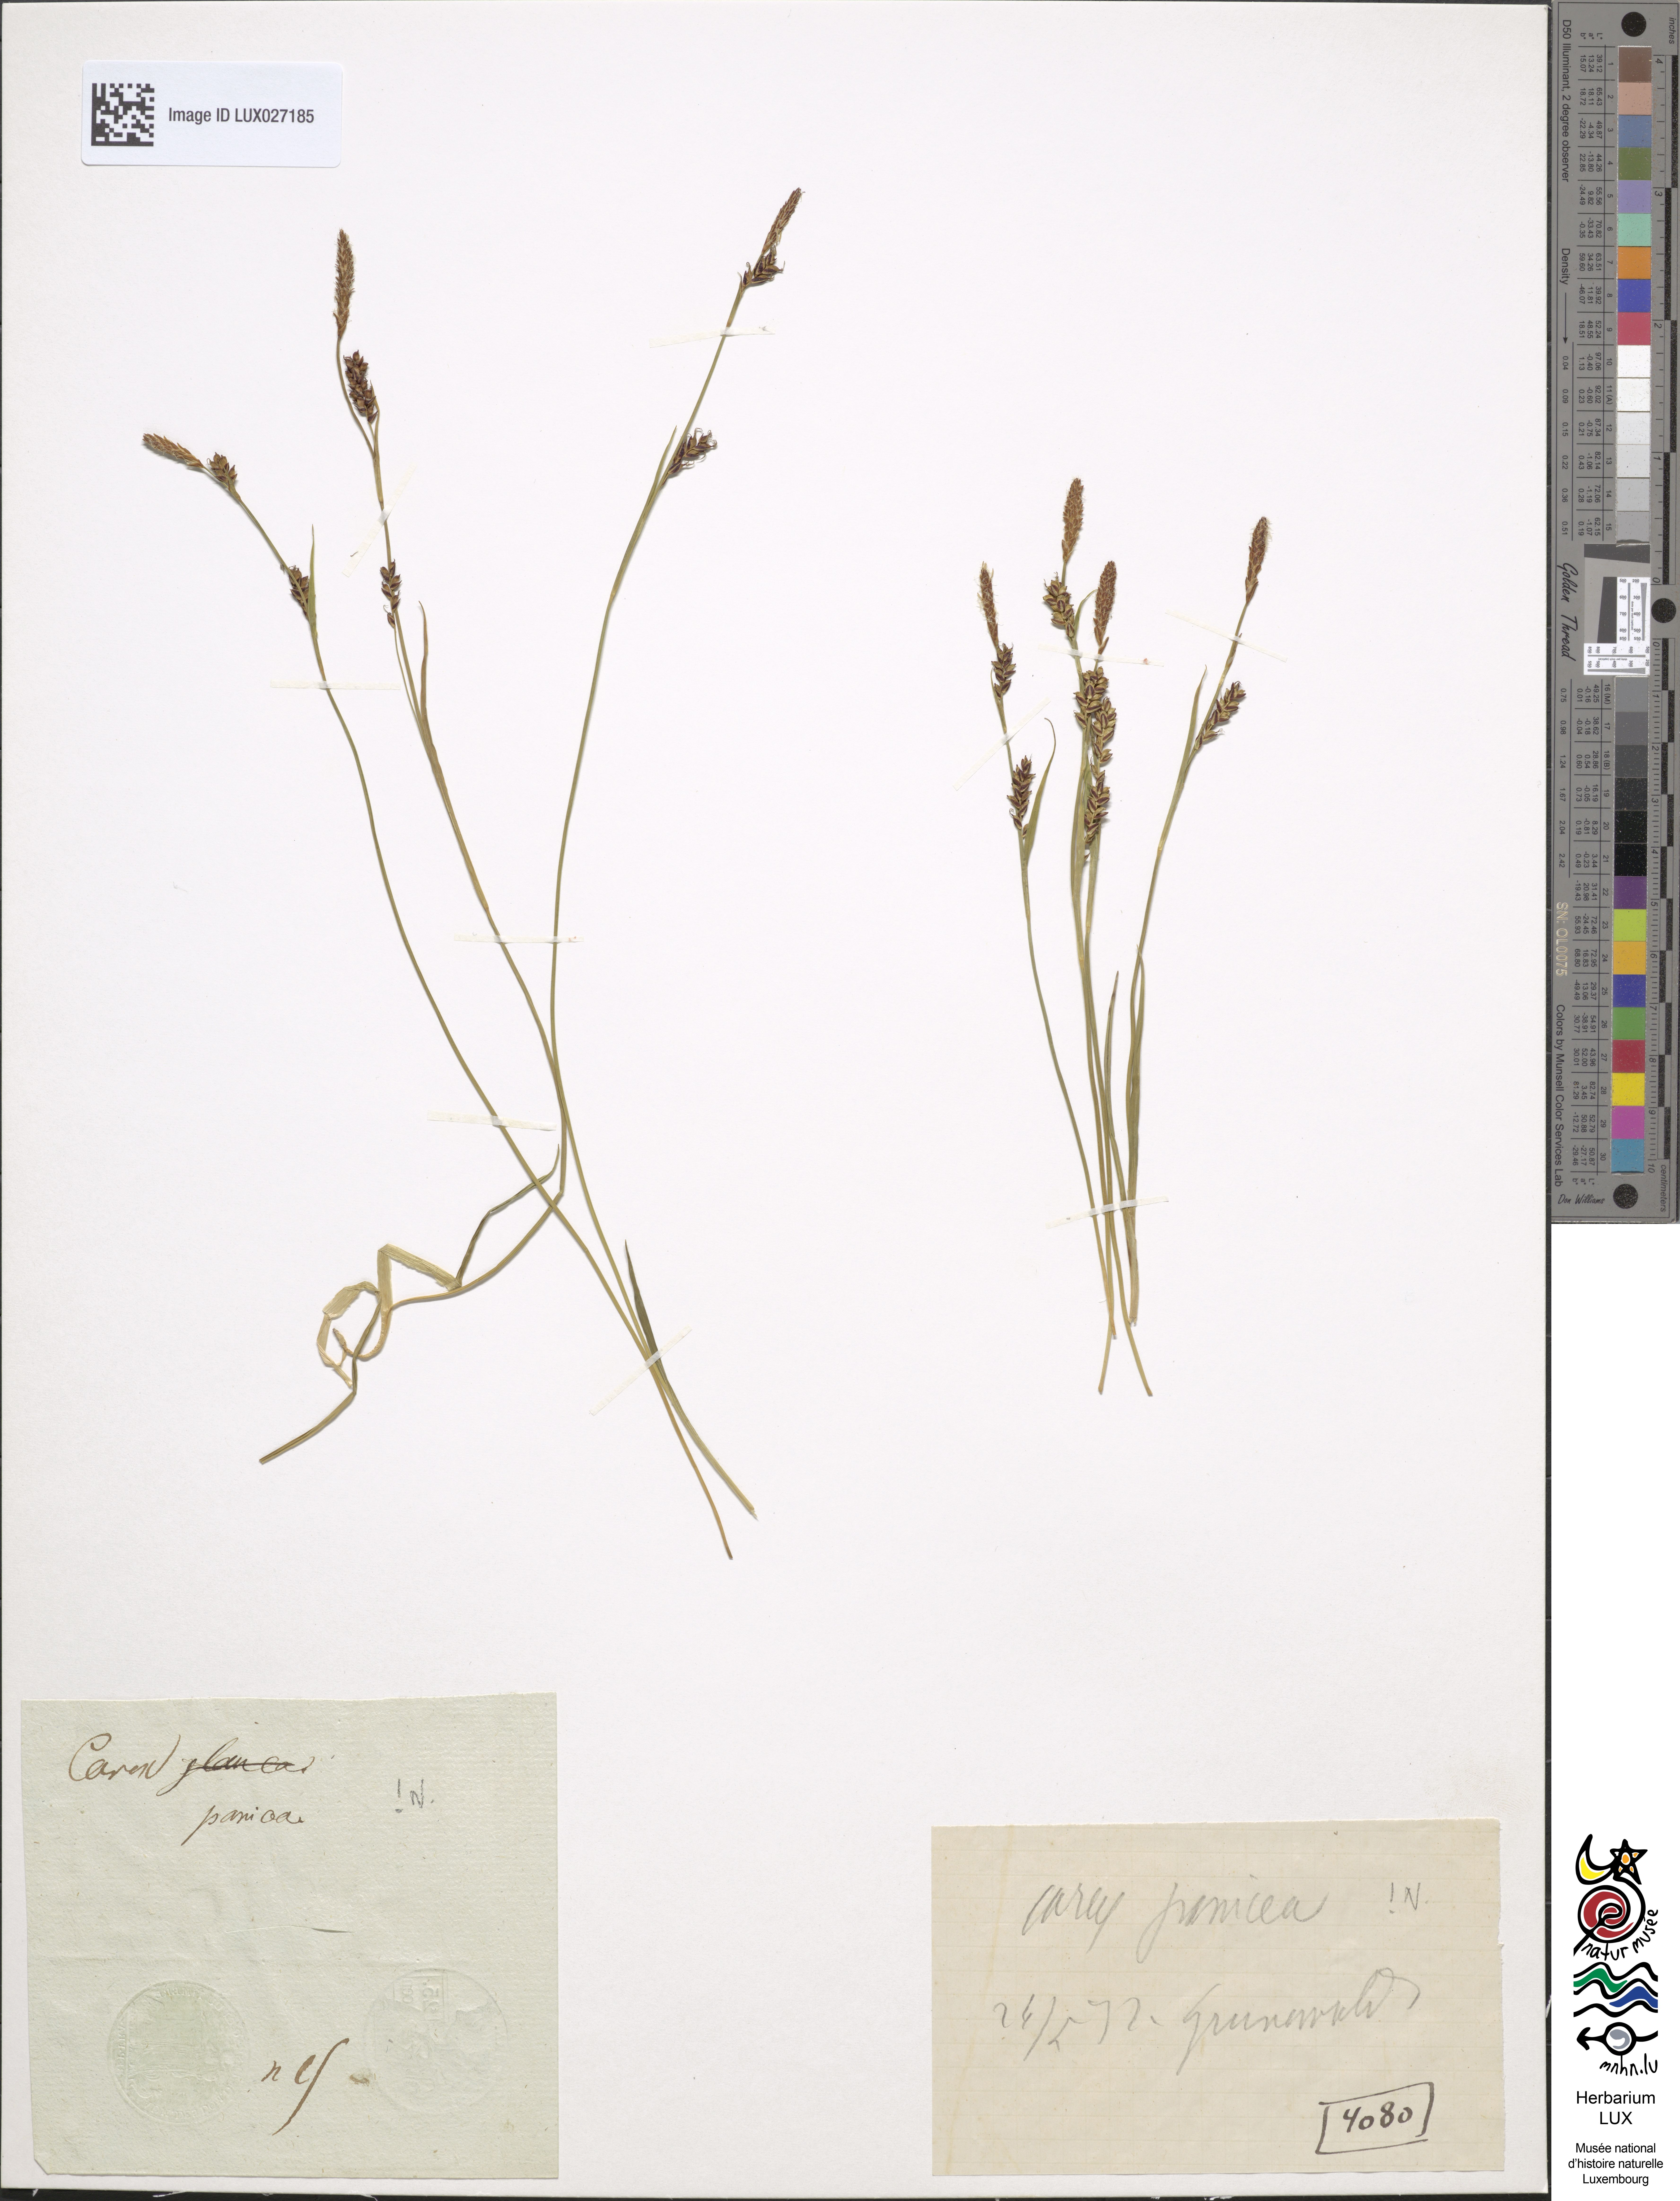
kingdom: Plantae
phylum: Tracheophyta
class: Liliopsida
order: Poales
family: Cyperaceae
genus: Carex
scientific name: Carex panicea
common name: Carnation sedge
